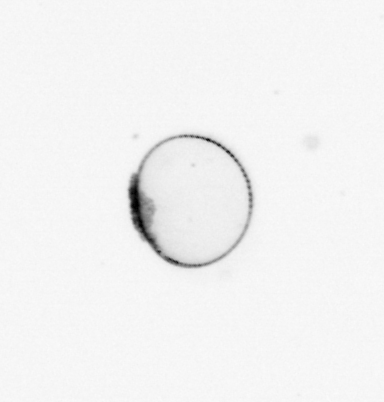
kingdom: Chromista
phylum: Myzozoa
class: Dinophyceae
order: Noctilucales
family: Noctilucaceae
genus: Noctiluca
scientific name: Noctiluca scintillans
